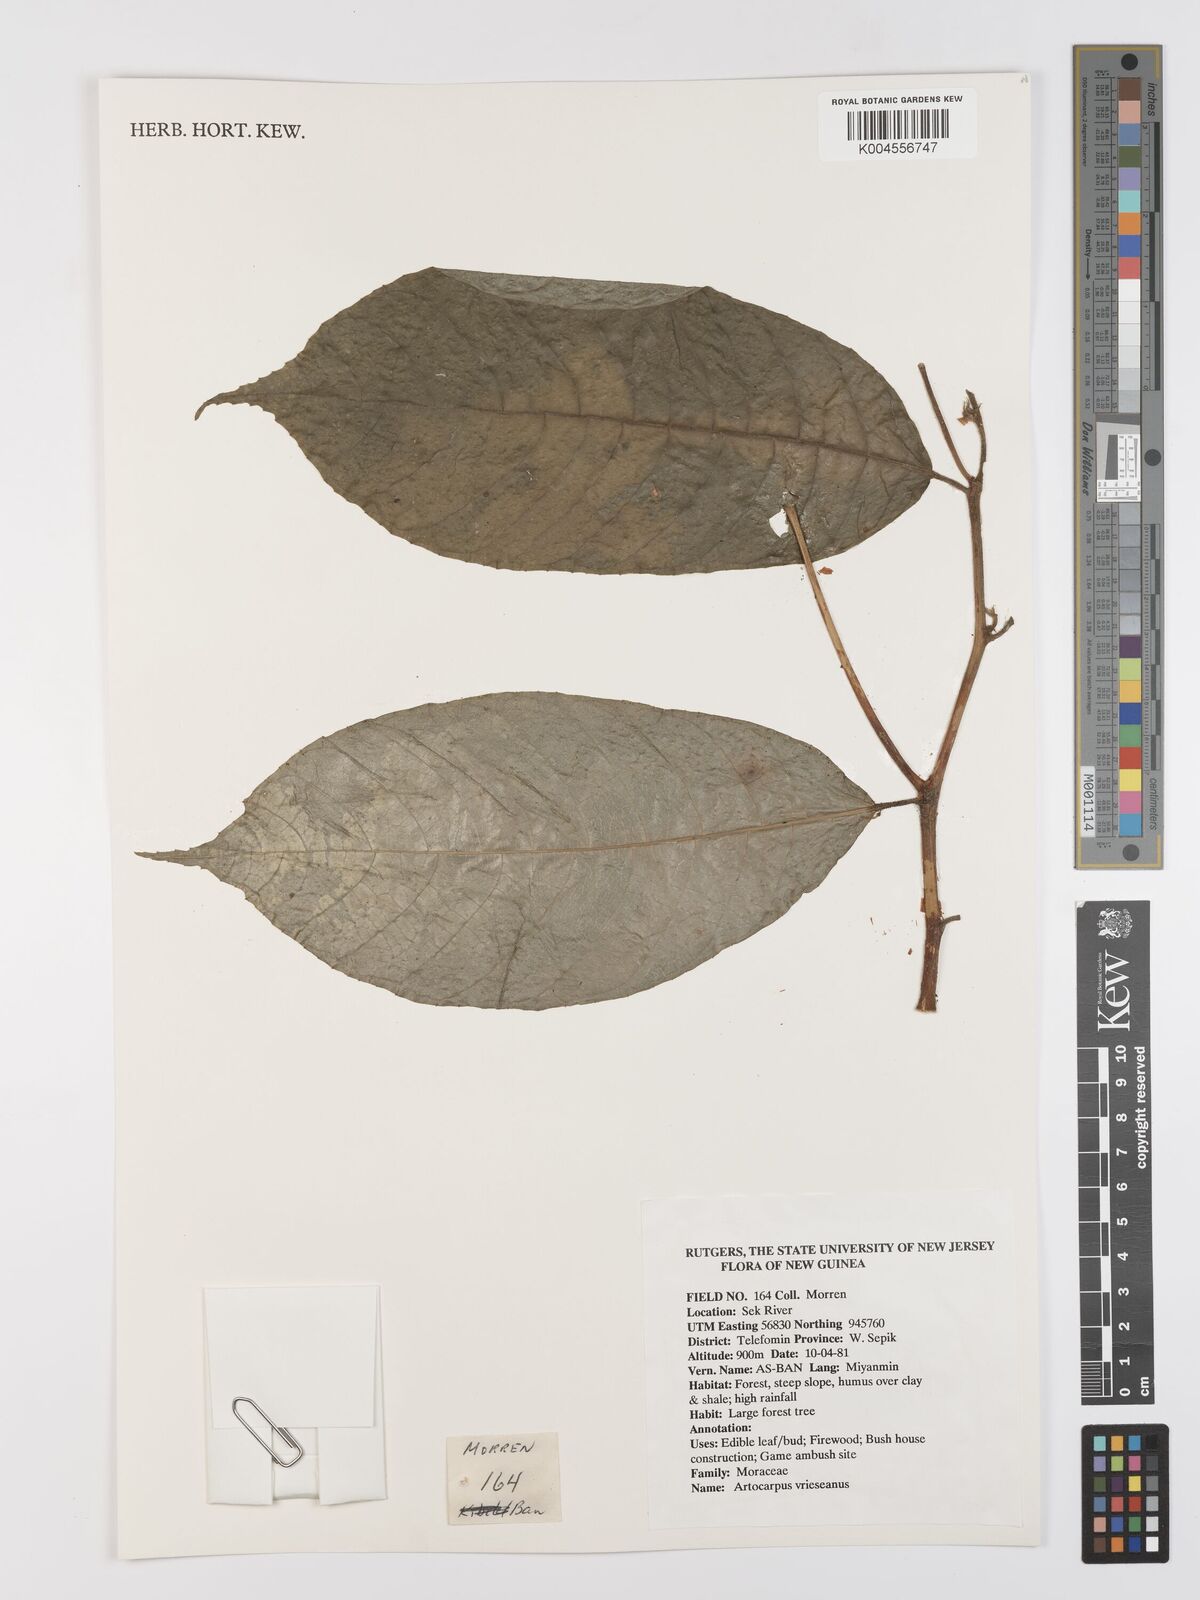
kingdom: Plantae
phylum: Tracheophyta
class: Magnoliopsida
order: Rosales
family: Moraceae
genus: Artocarpus
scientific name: Artocarpus vrieseanus
